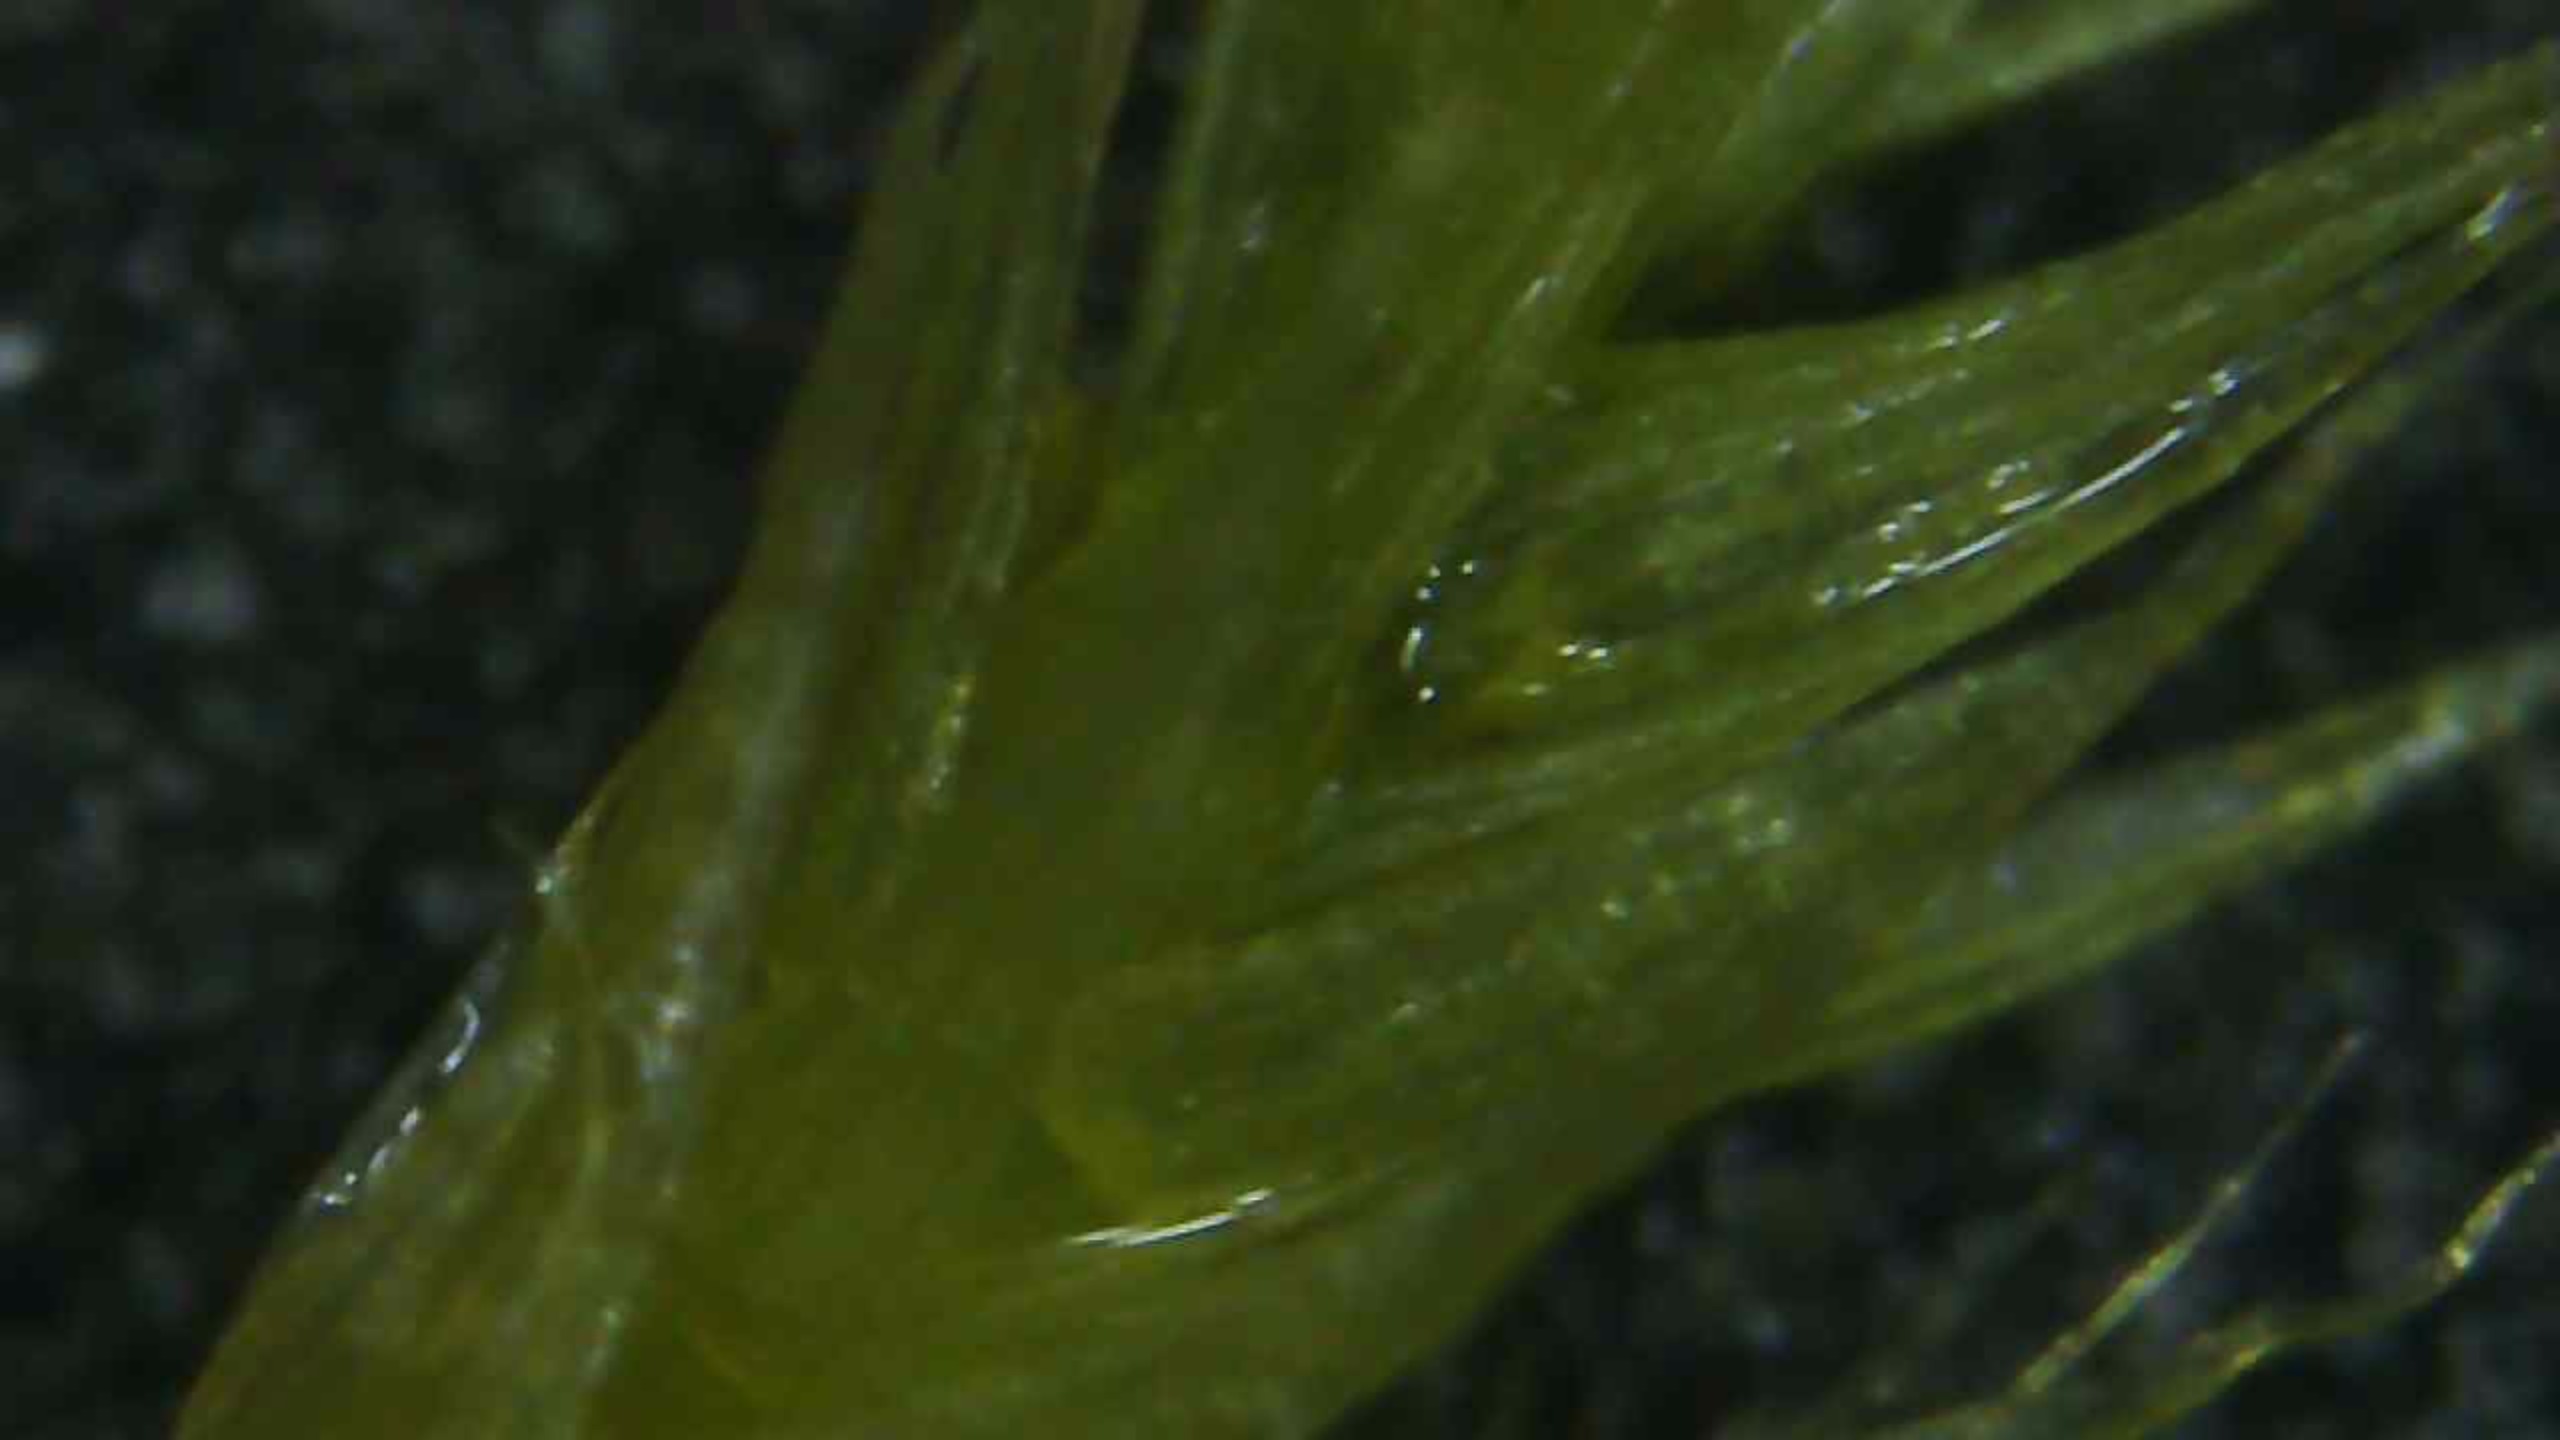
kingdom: Plantae
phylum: Bryophyta
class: Bryopsida
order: Hypnales
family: Brachytheciaceae
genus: Homalothecium
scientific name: Homalothecium sericeum
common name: Krybende silkemos
